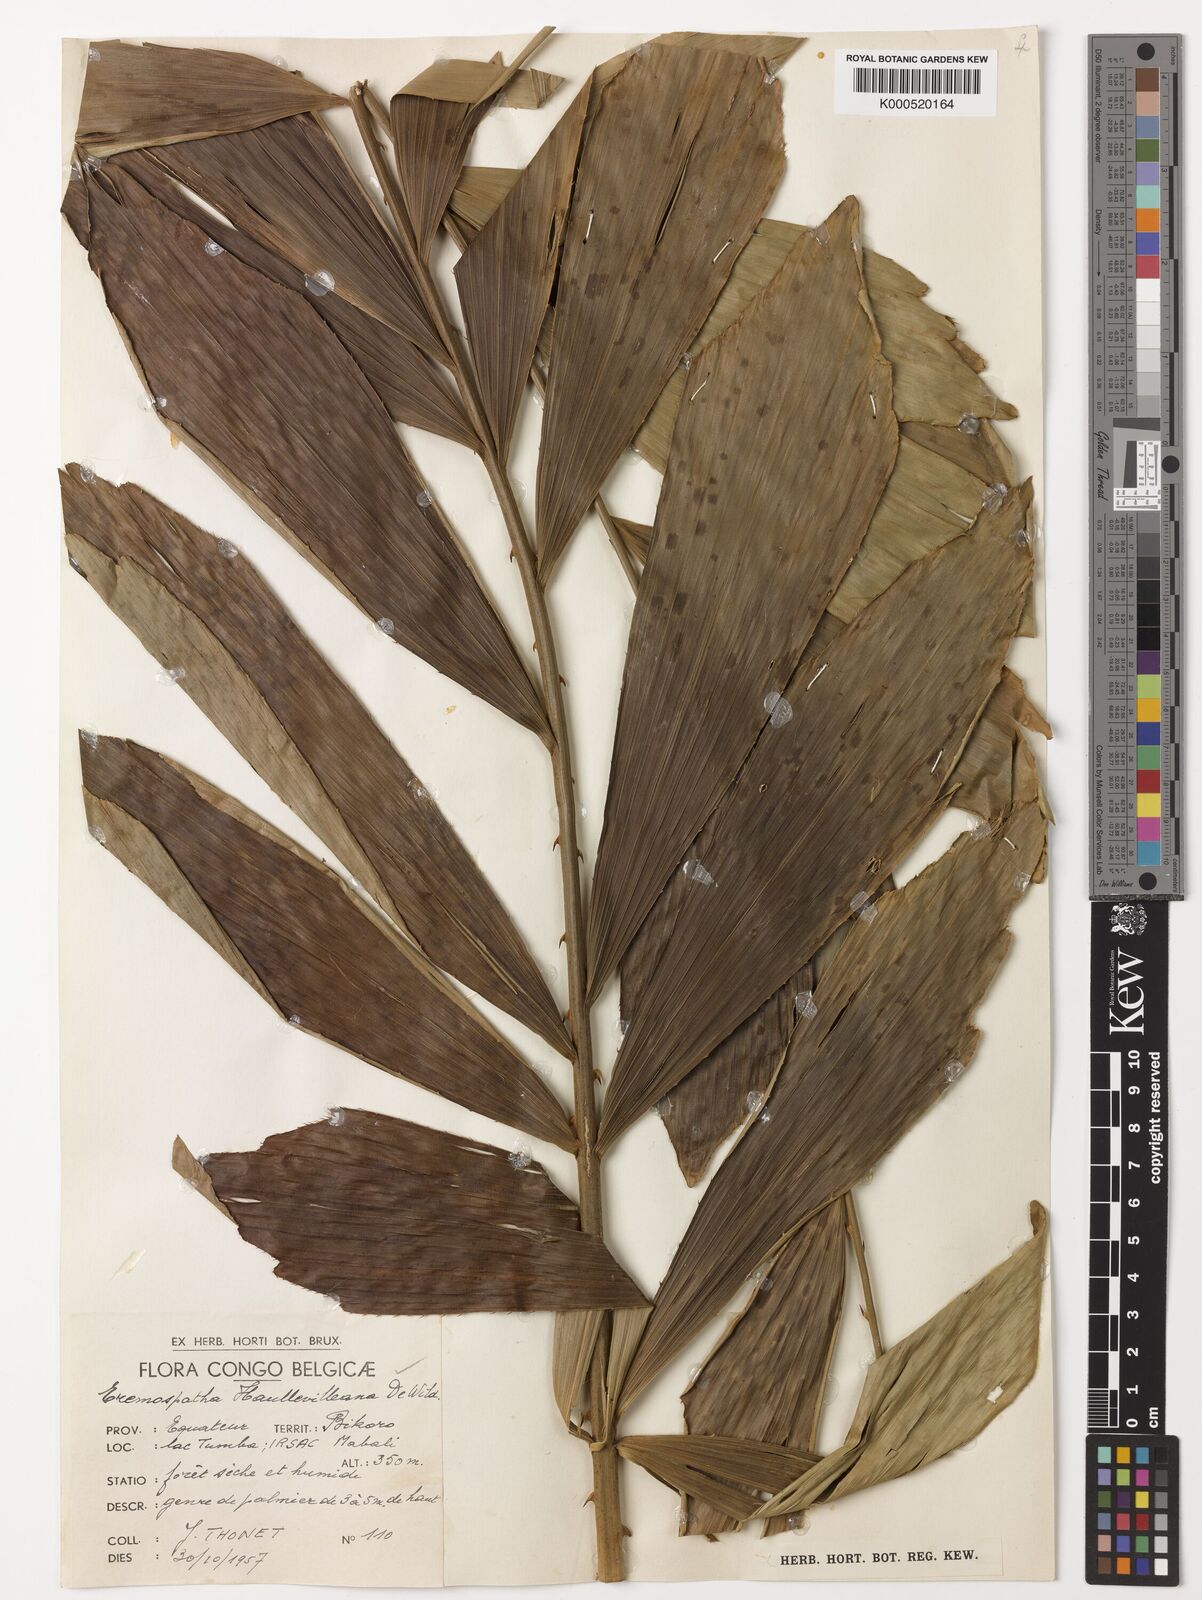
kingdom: Plantae
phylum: Tracheophyta
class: Liliopsida
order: Arecales
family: Arecaceae
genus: Eremospatha
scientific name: Eremospatha haullevilleana
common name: Rattan
